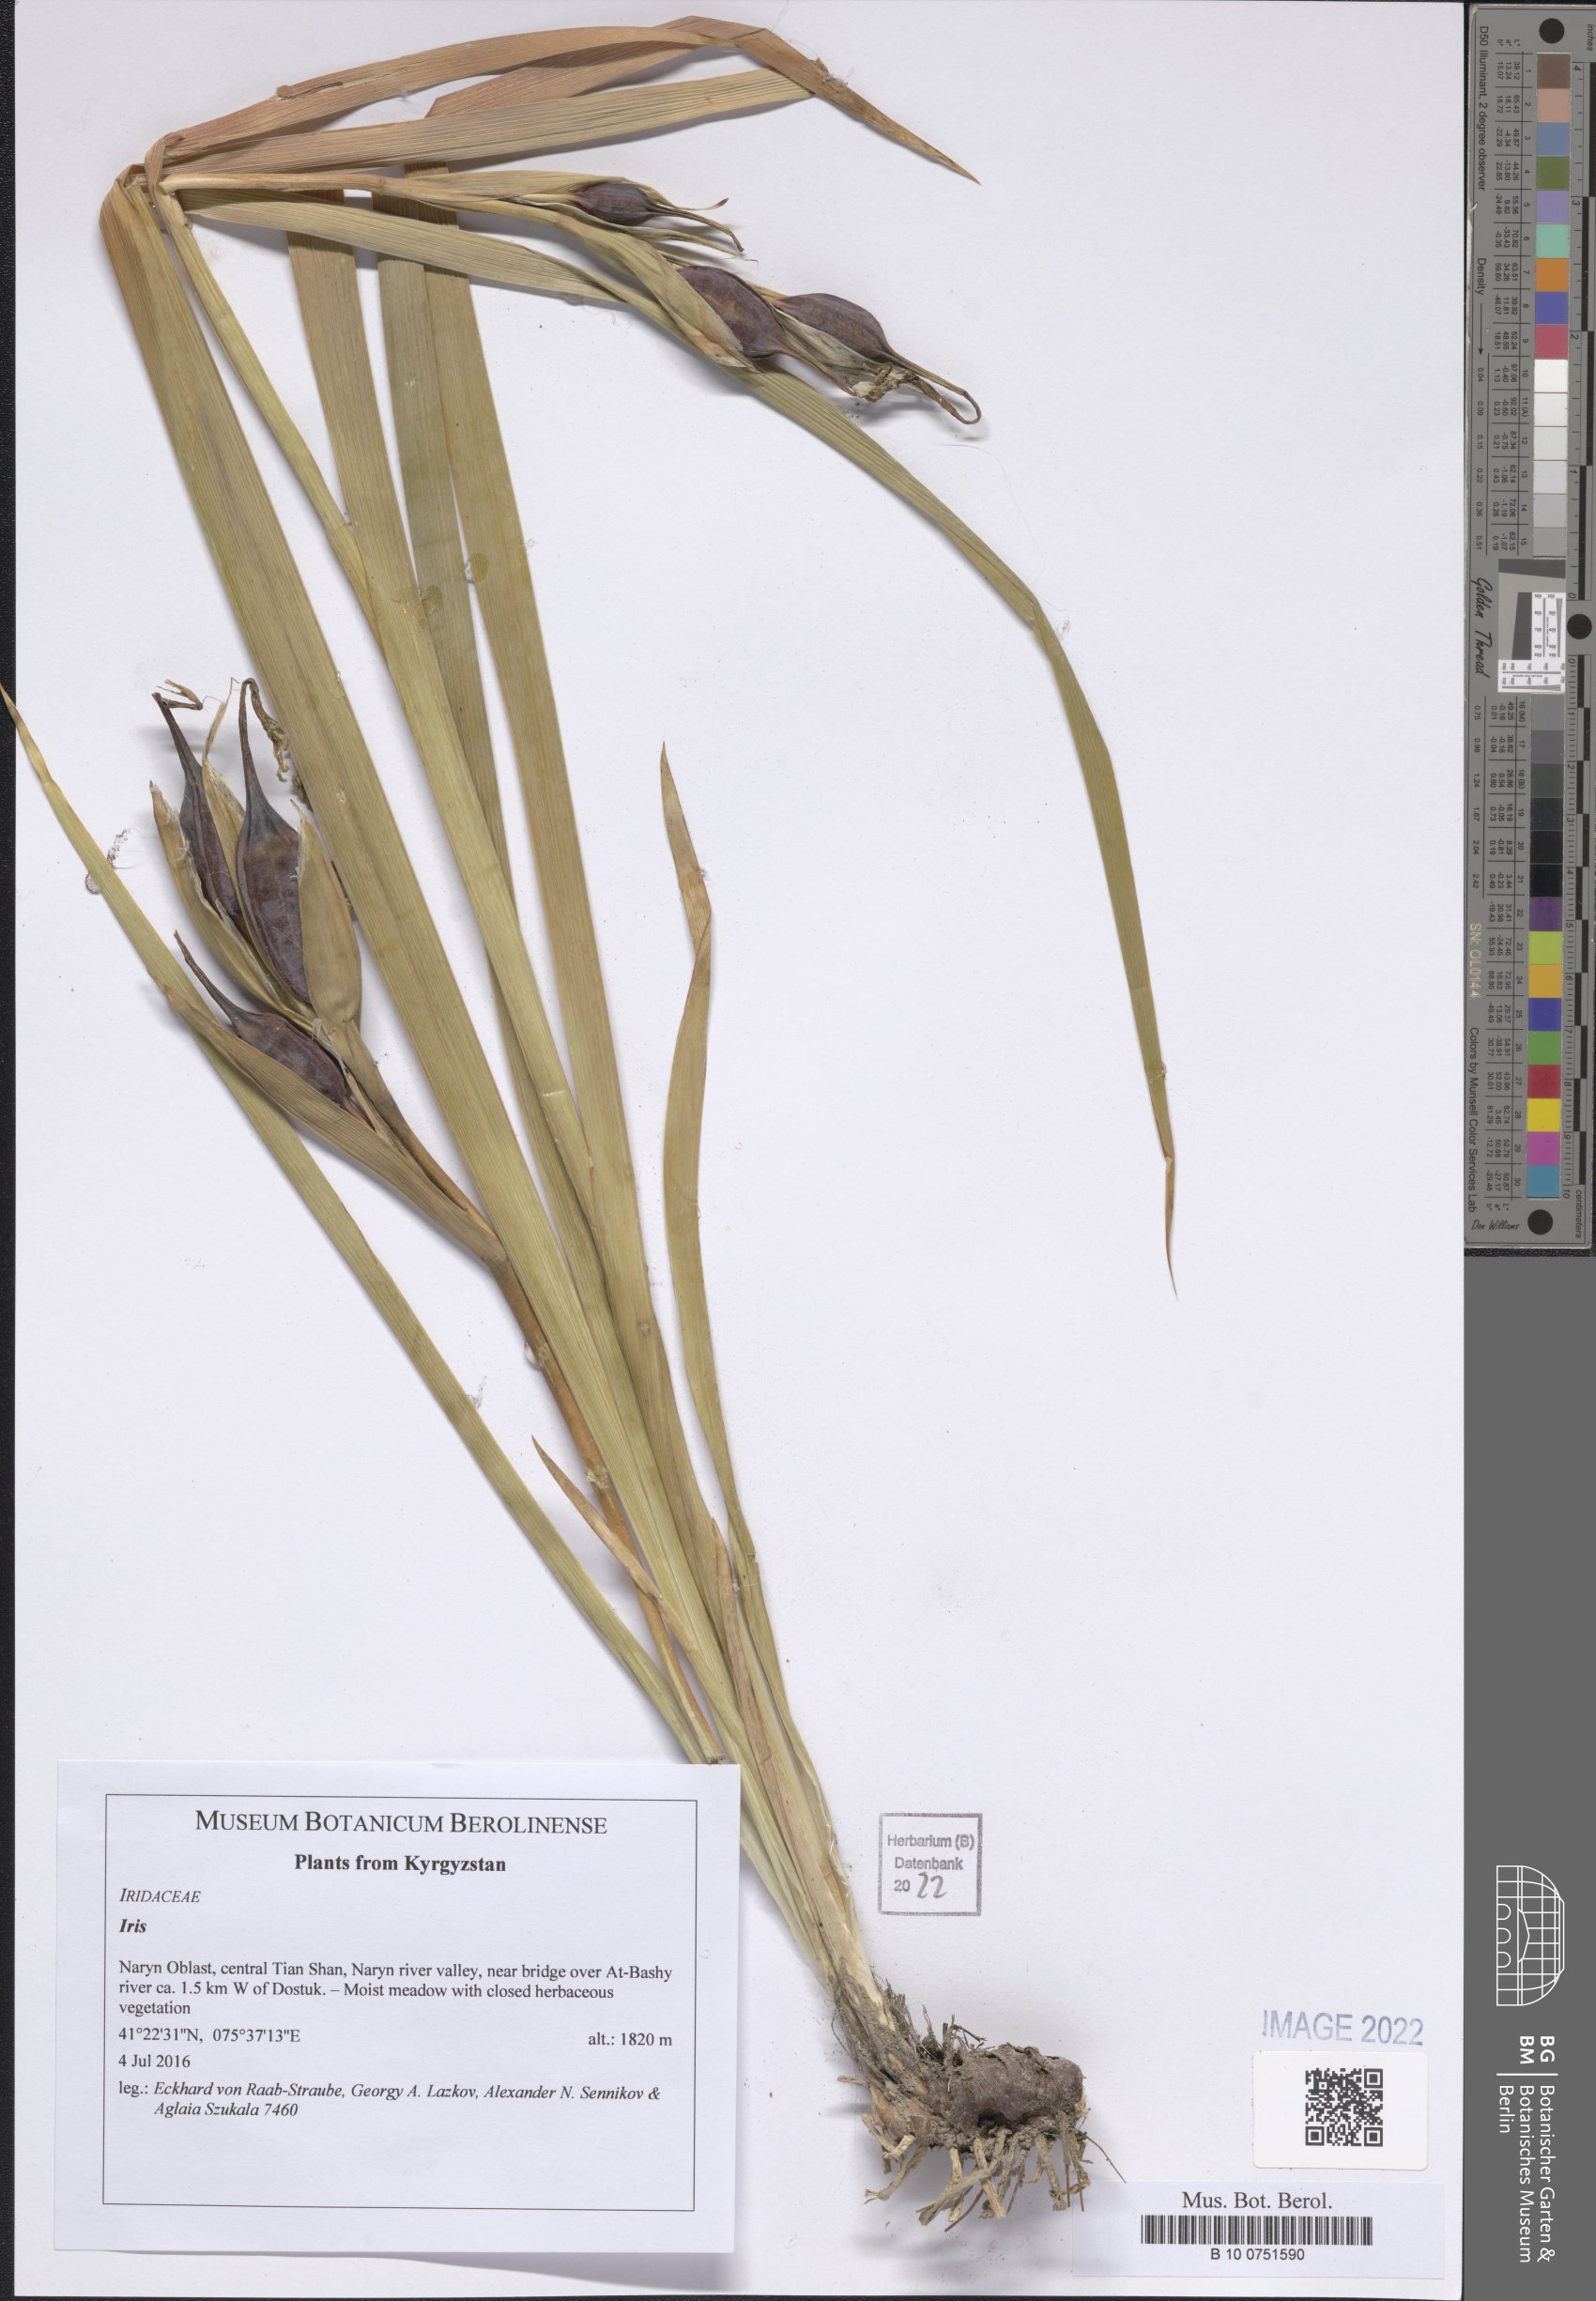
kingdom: Plantae
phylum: Tracheophyta
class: Liliopsida
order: Asparagales
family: Iridaceae
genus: Iris
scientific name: Iris
